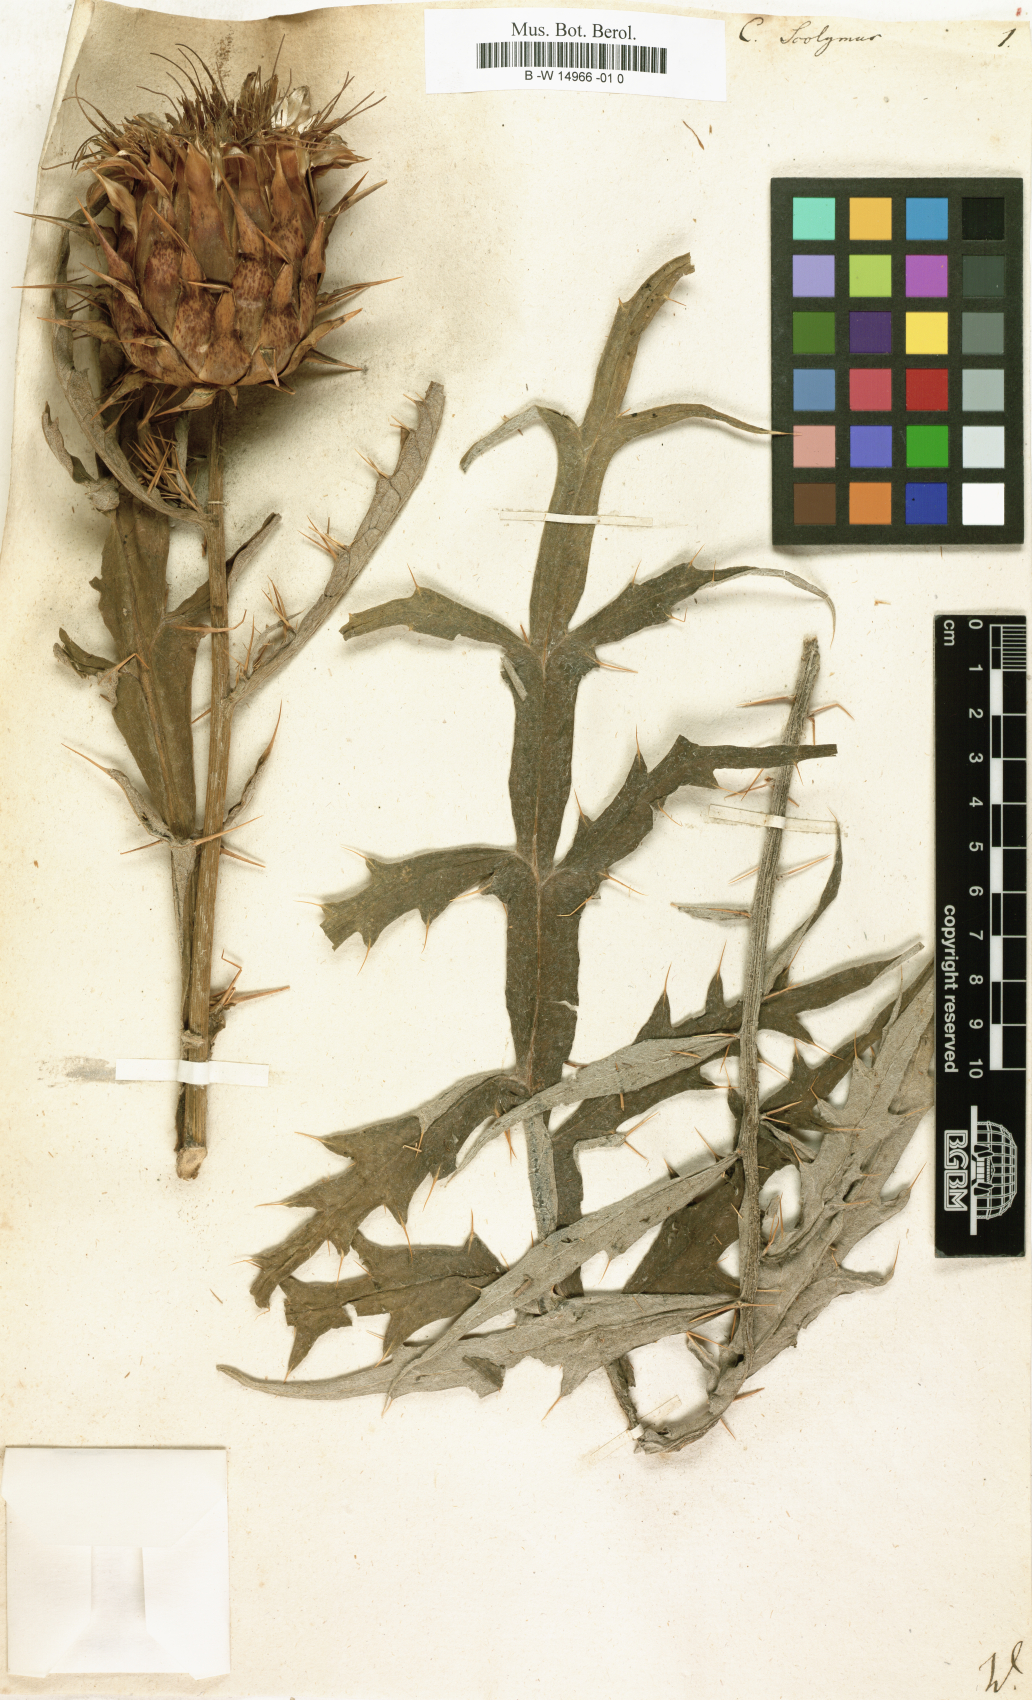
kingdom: Plantae
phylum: Tracheophyta
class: Magnoliopsida
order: Asterales
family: Asteraceae
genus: Cynara
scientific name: Cynara scolymus
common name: Globe artichoke
